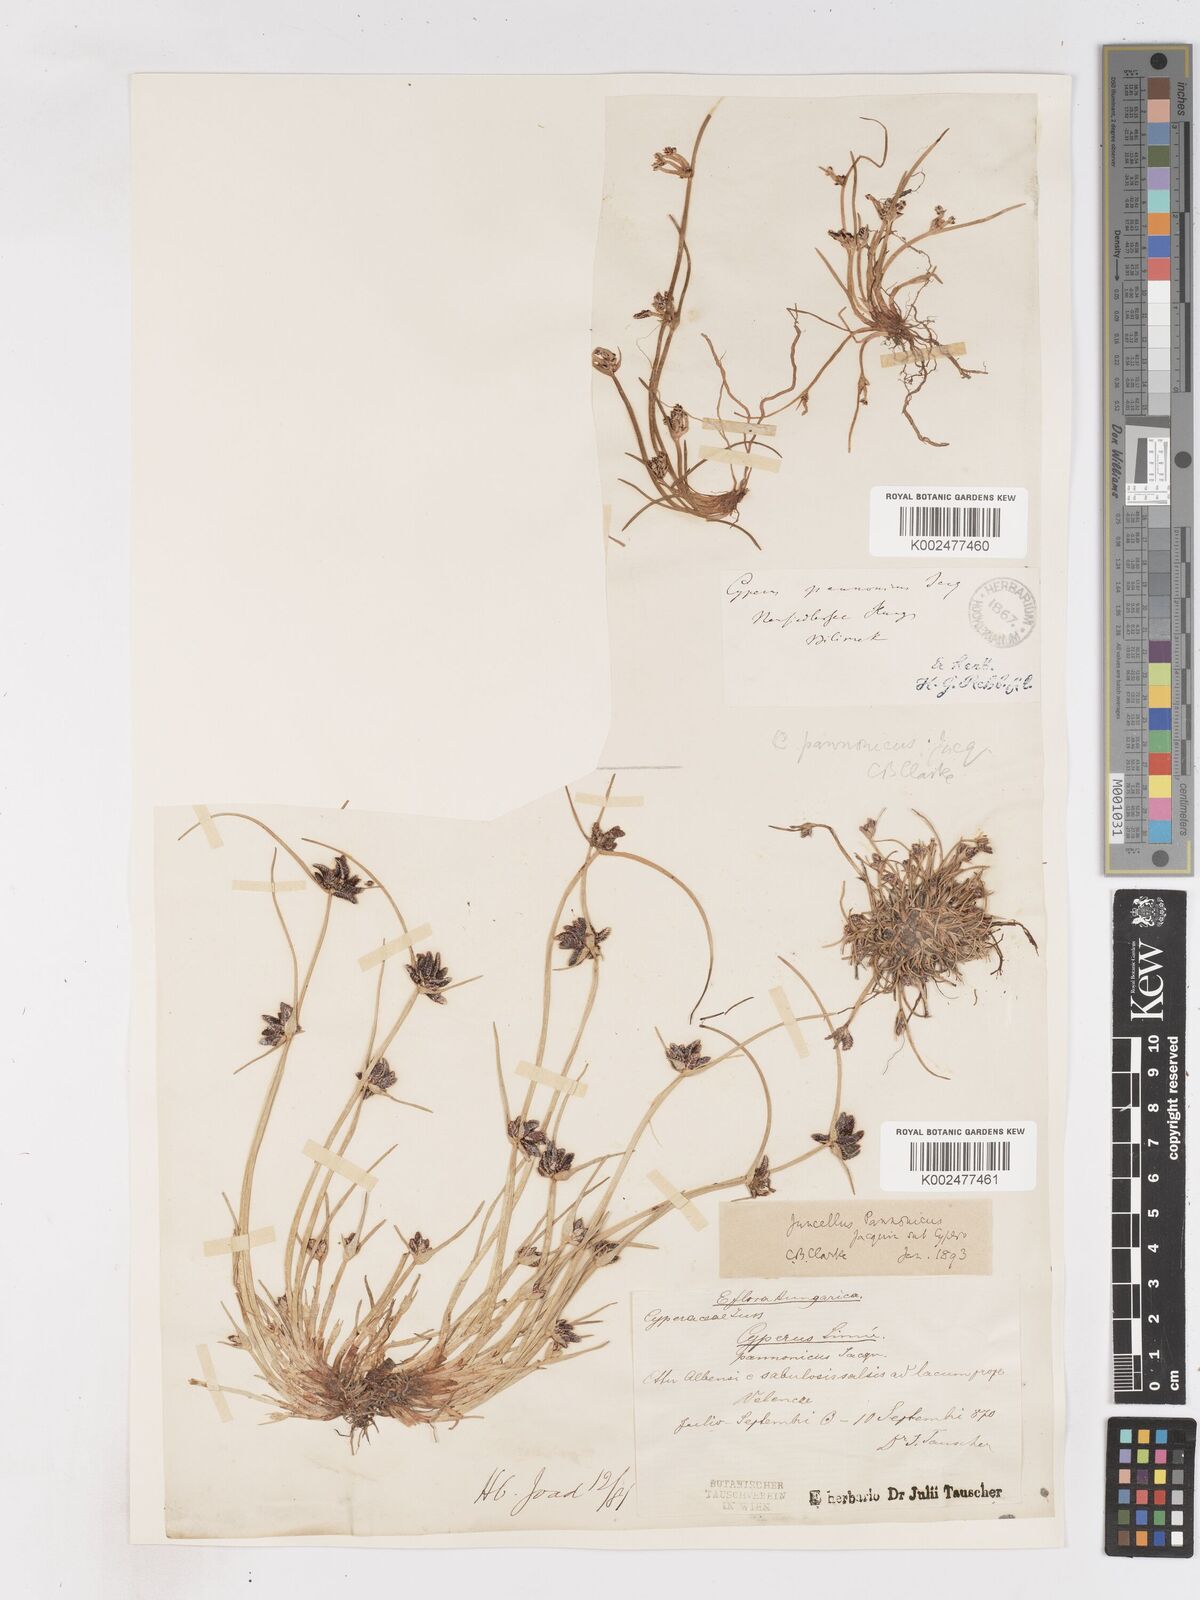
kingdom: Plantae
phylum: Tracheophyta
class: Liliopsida
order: Poales
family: Cyperaceae
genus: Cyperus
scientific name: Cyperus pannonicus
